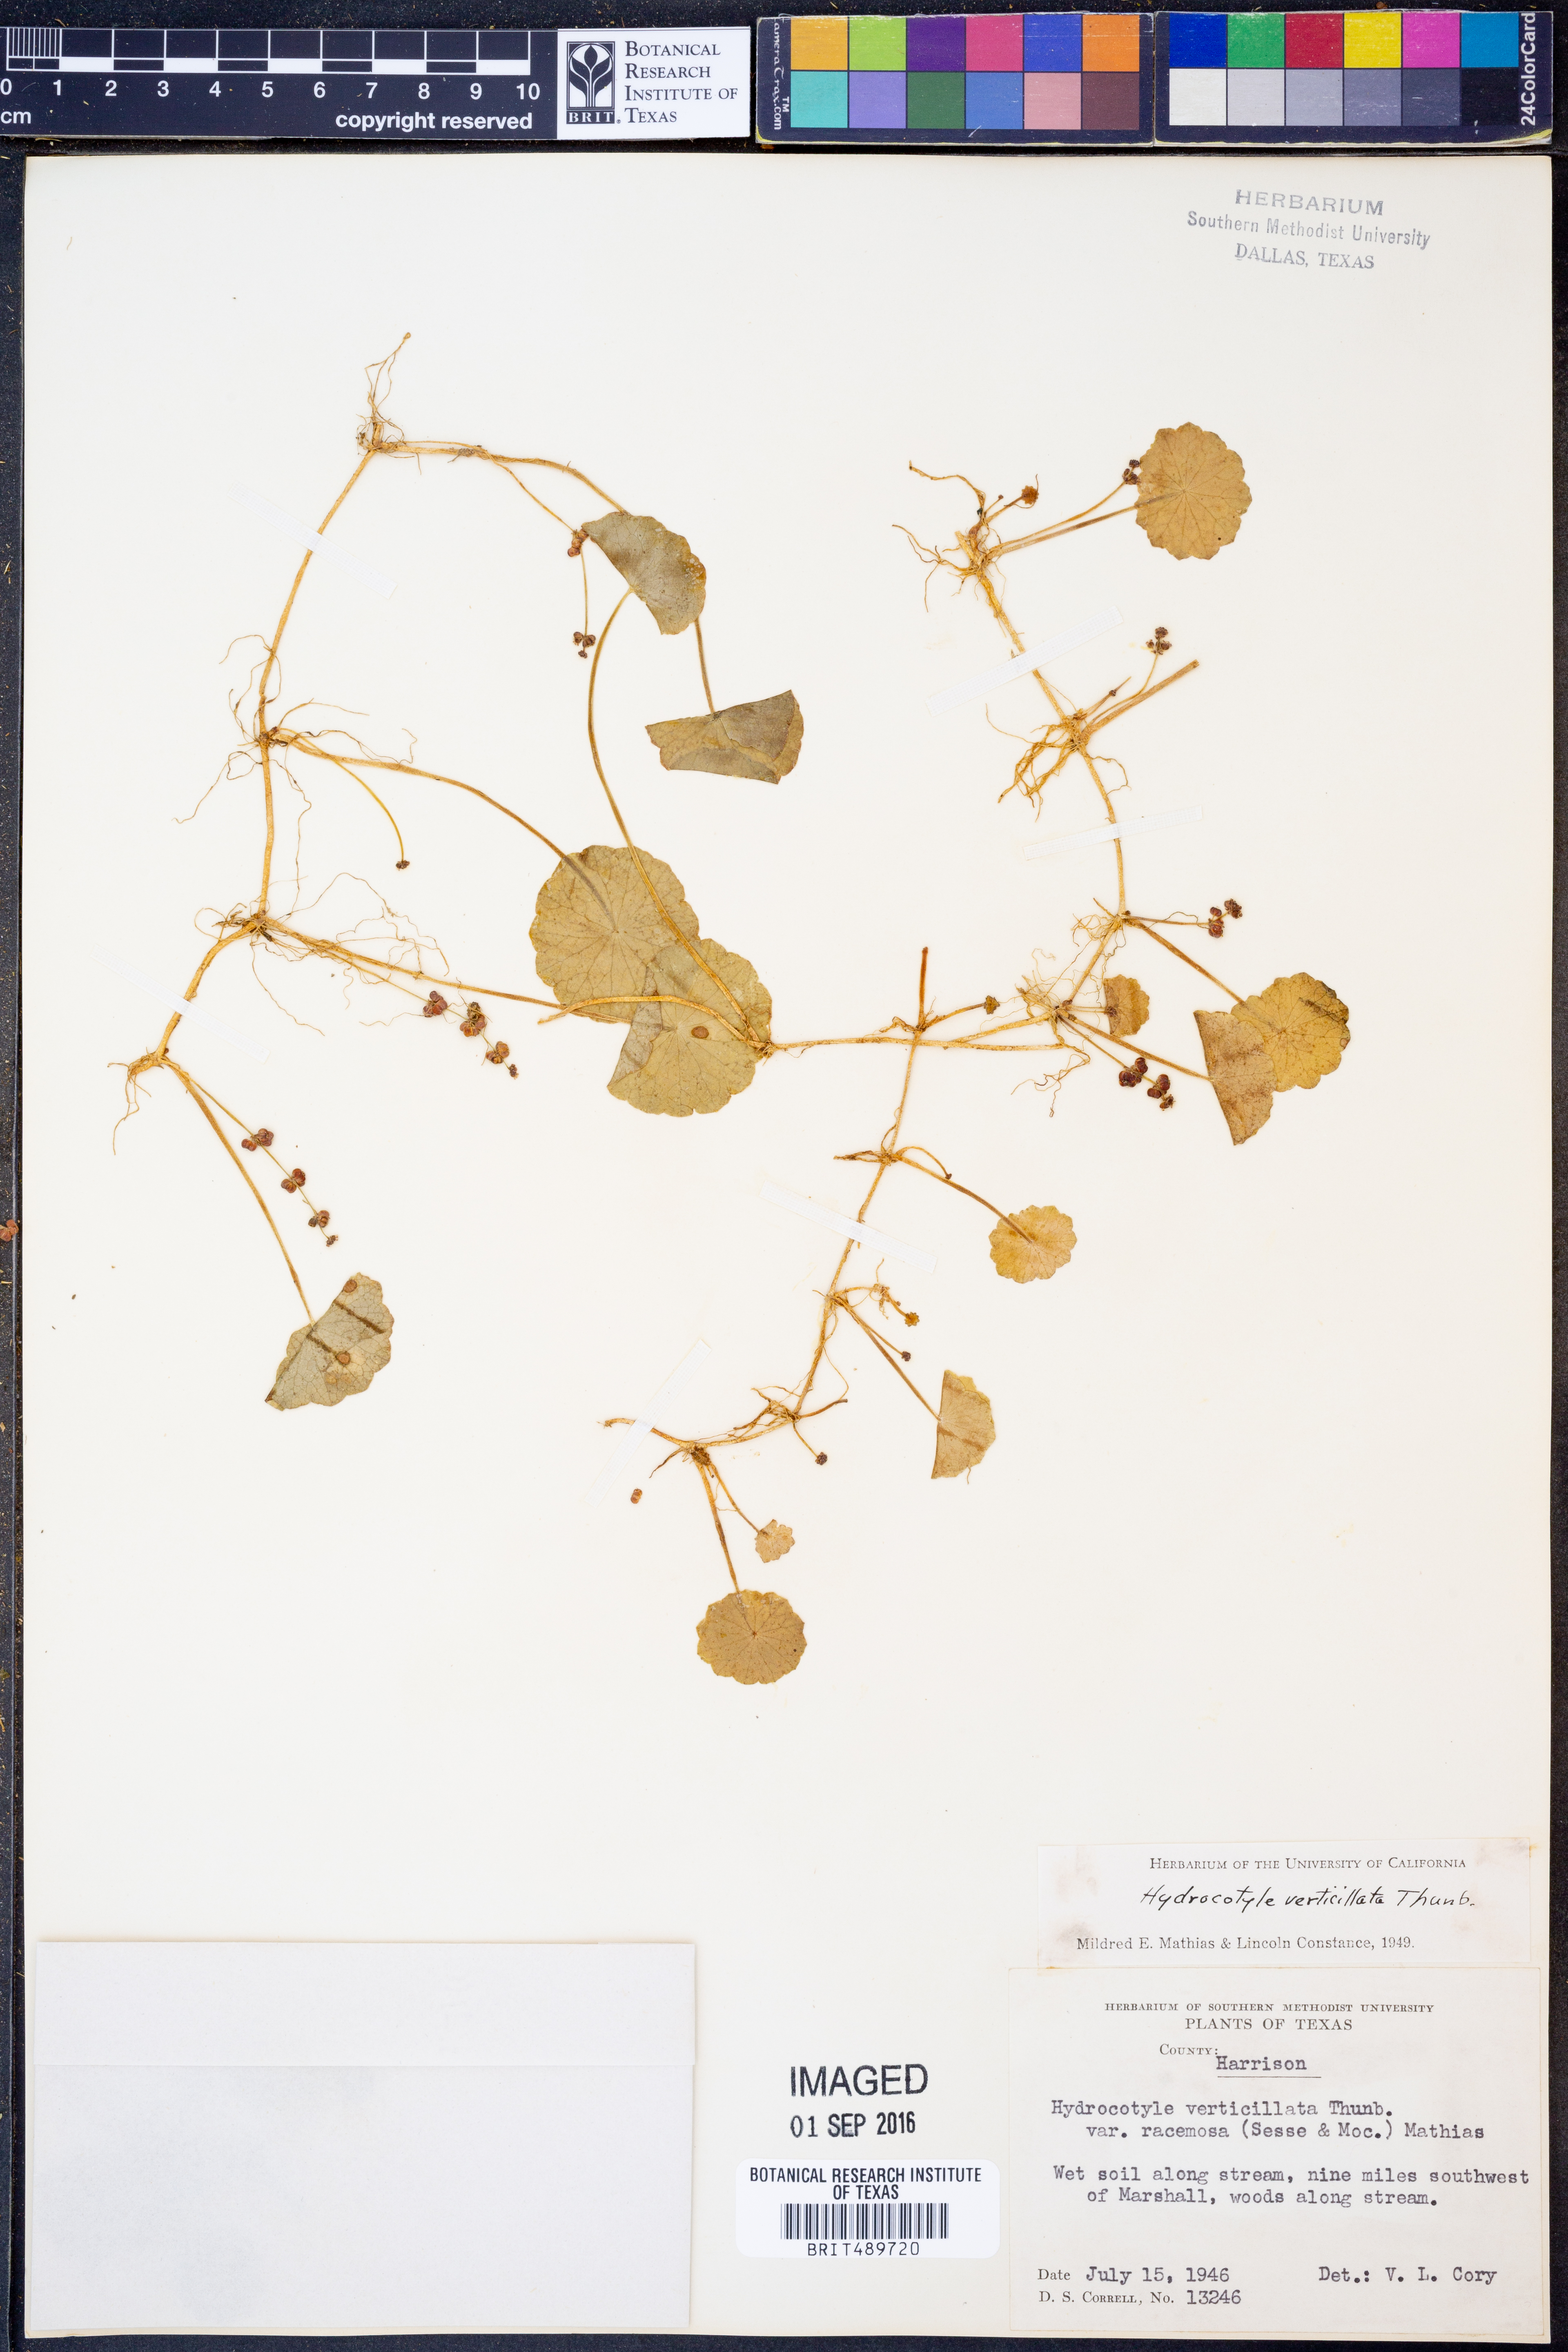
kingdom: Plantae
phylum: Tracheophyta
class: Magnoliopsida
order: Apiales
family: Araliaceae
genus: Hydrocotyle
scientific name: Hydrocotyle verticillata
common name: Whorled marshpennywort
